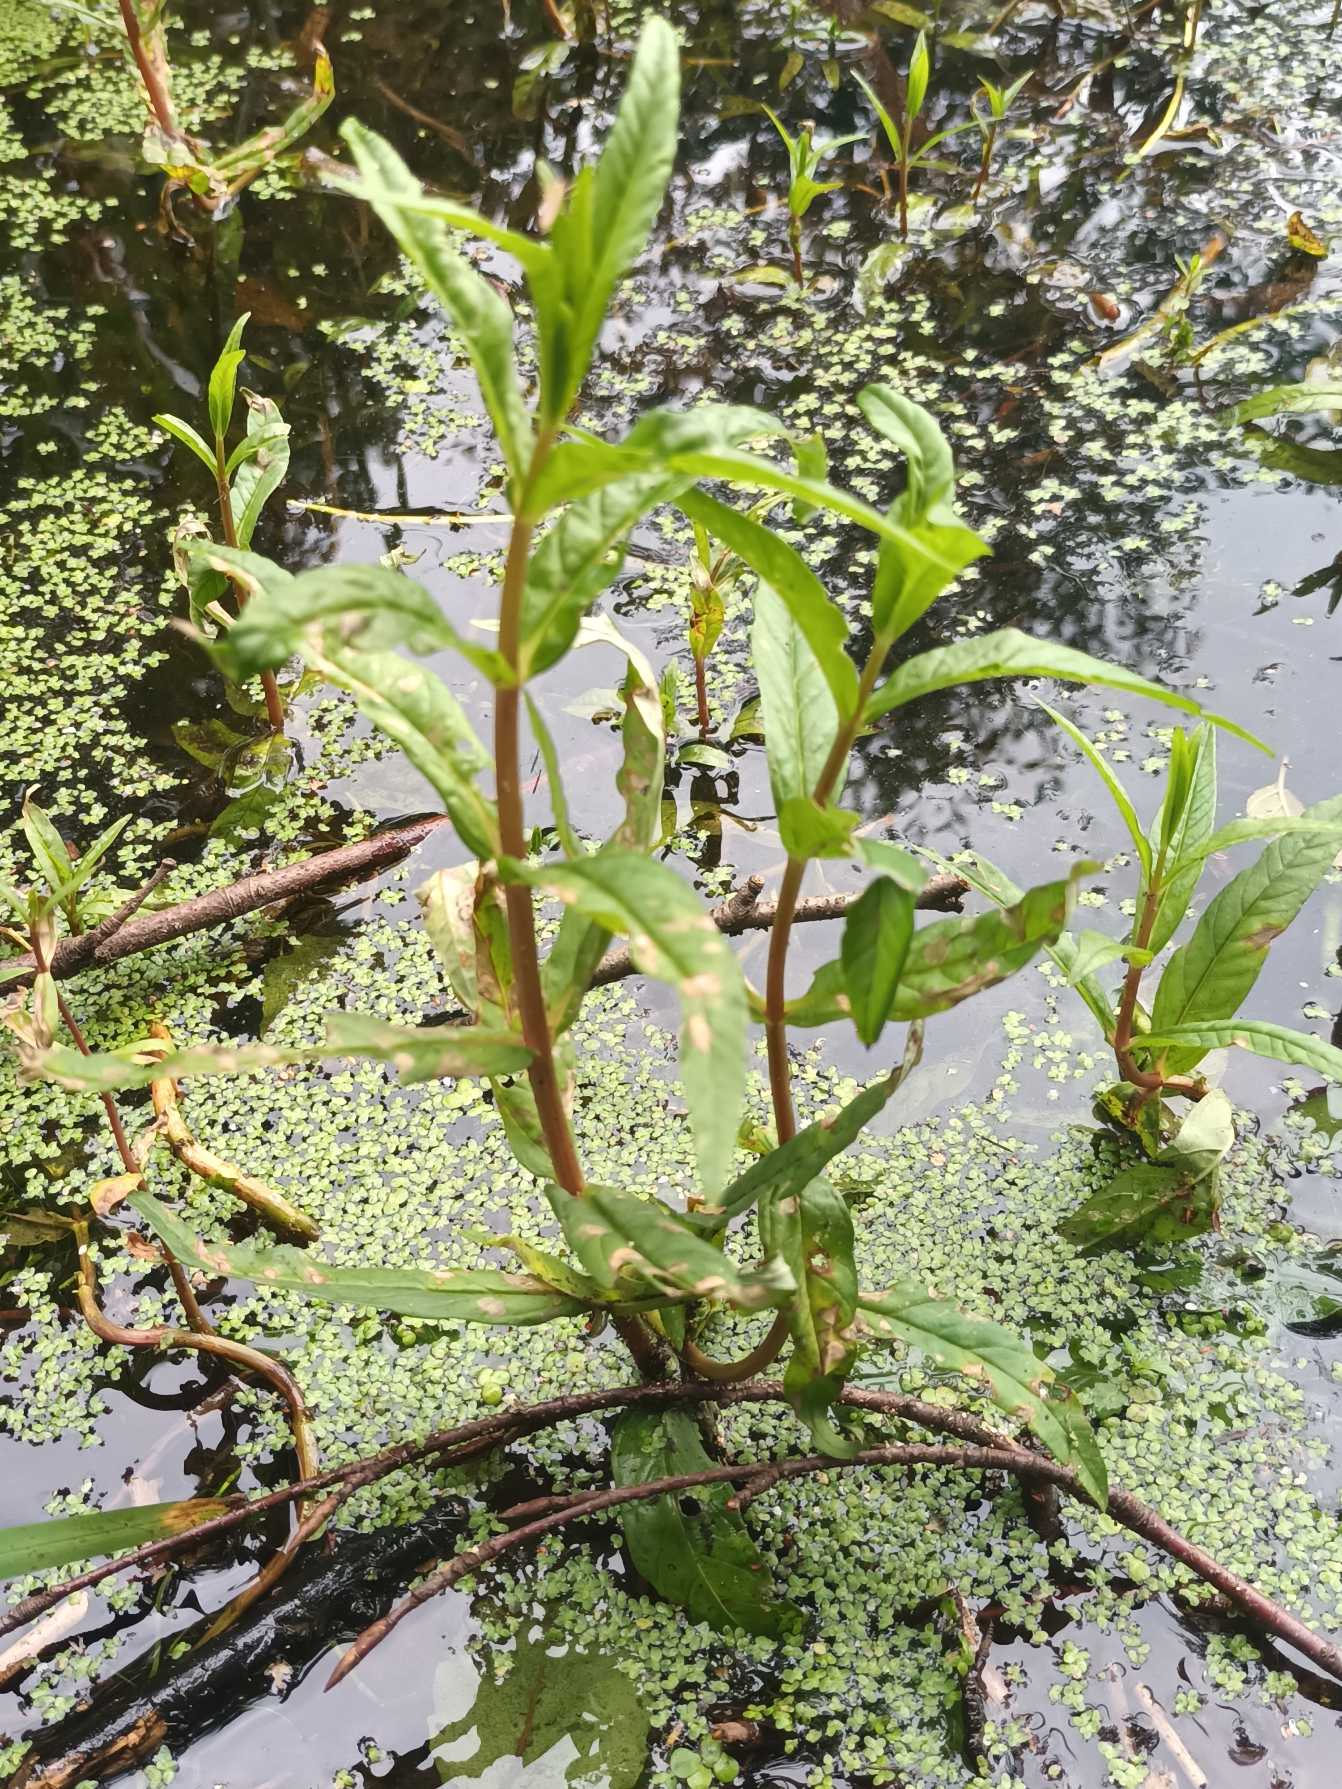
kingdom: Plantae
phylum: Tracheophyta
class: Magnoliopsida
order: Ericales
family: Primulaceae
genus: Lysimachia
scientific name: Lysimachia thyrsiflora
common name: Dusk-fredløs
